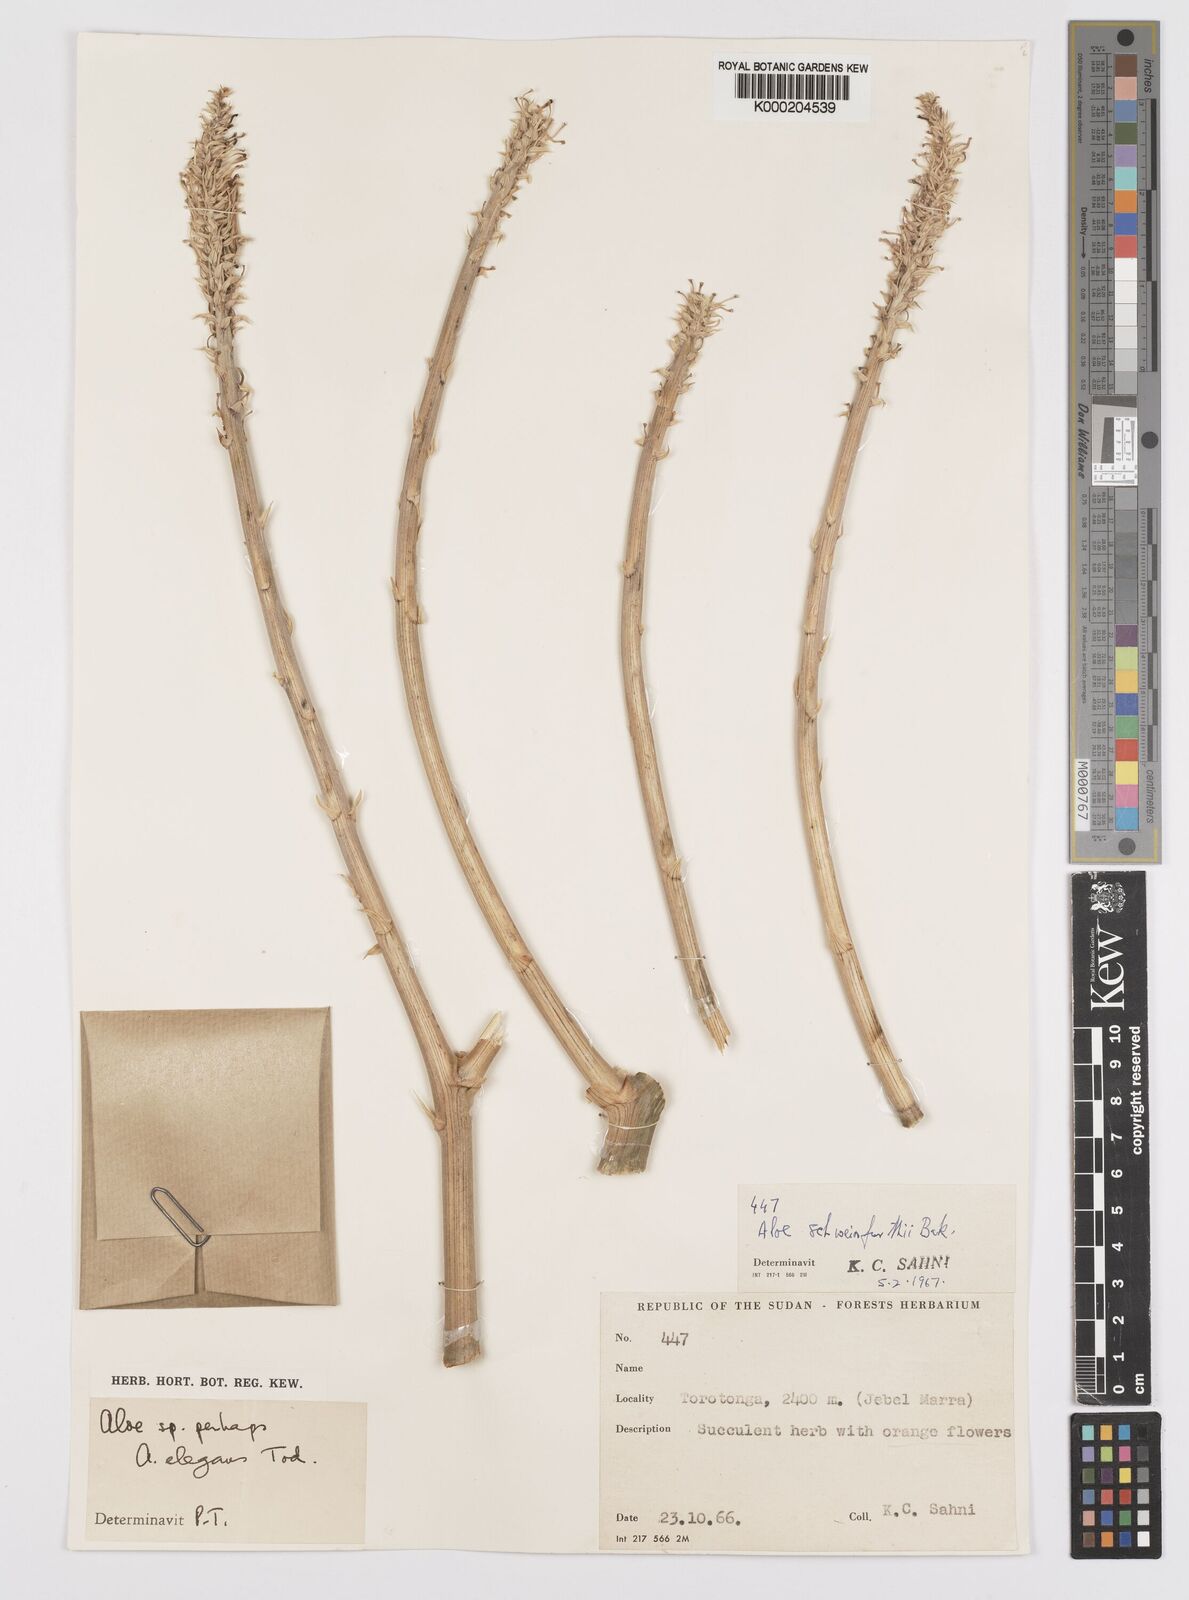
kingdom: Plantae
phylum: Tracheophyta
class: Liliopsida
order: Asparagales
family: Asphodelaceae
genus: Aloe
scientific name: Aloe elegans
